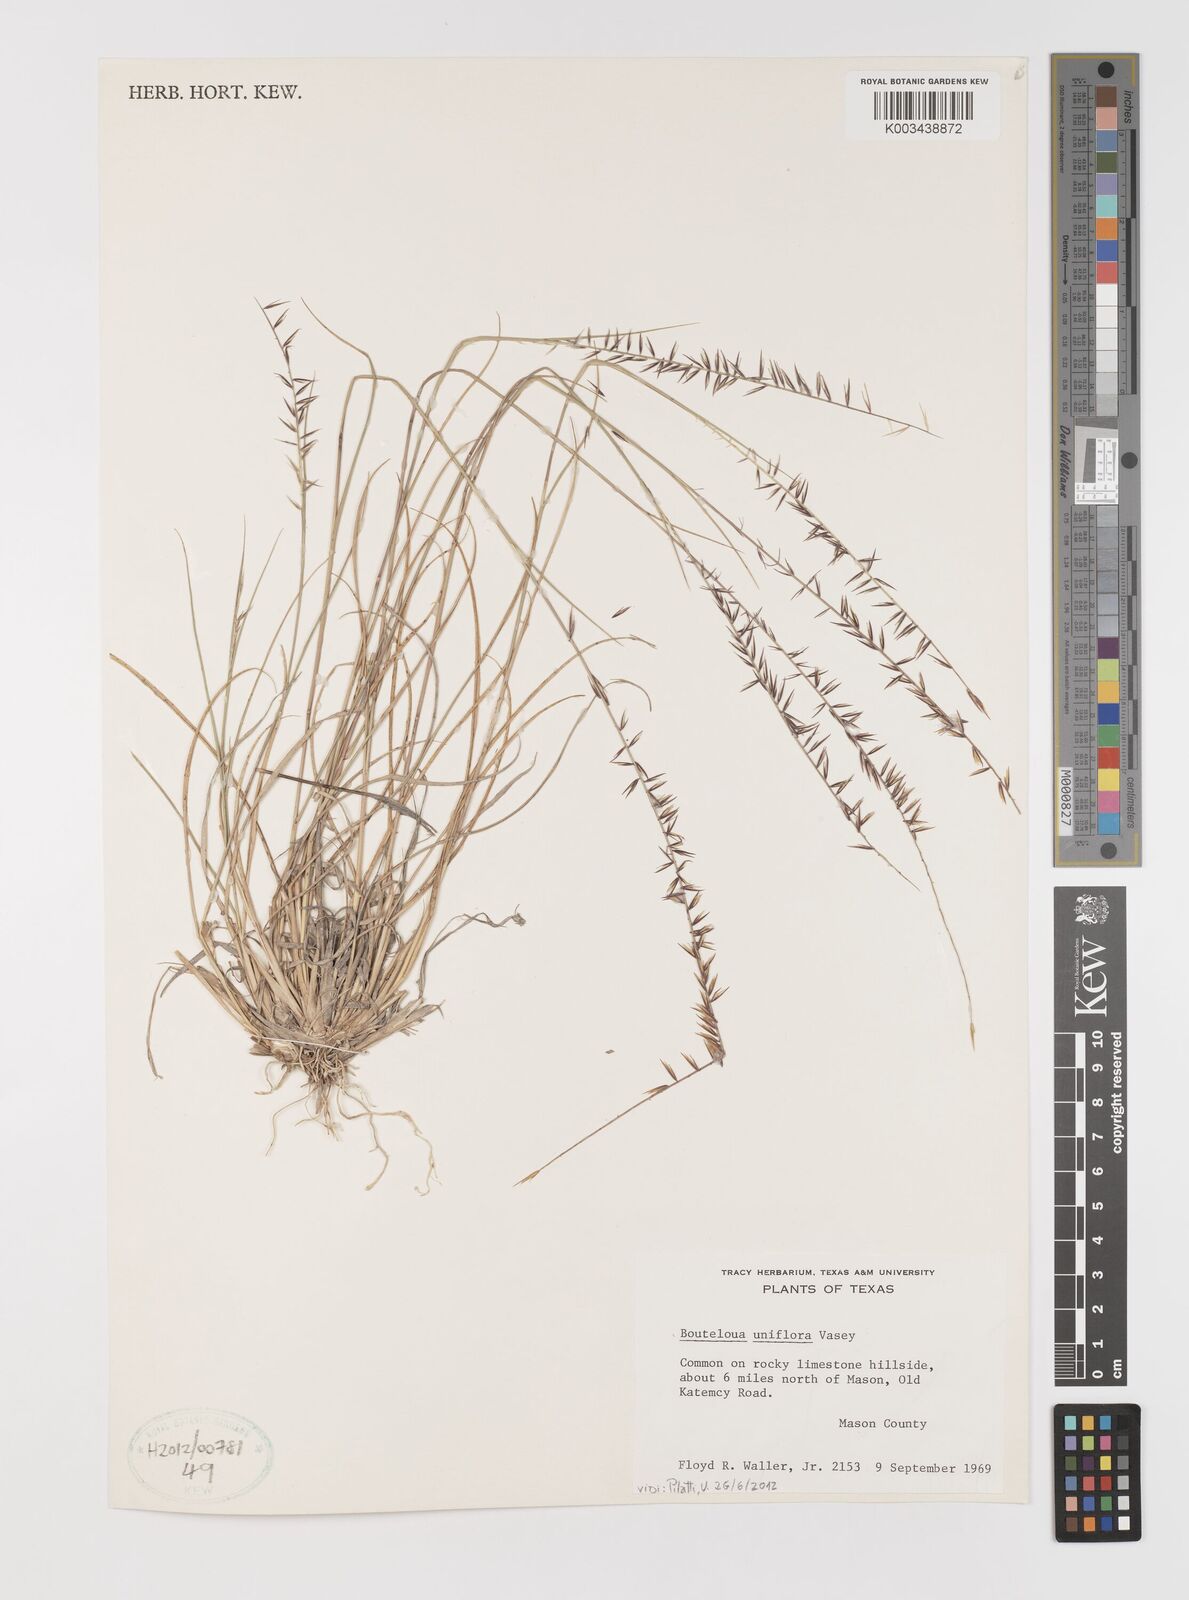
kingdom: Plantae
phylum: Tracheophyta
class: Liliopsida
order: Poales
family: Poaceae
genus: Bouteloua
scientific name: Bouteloua uniflora
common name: Neally's grama
